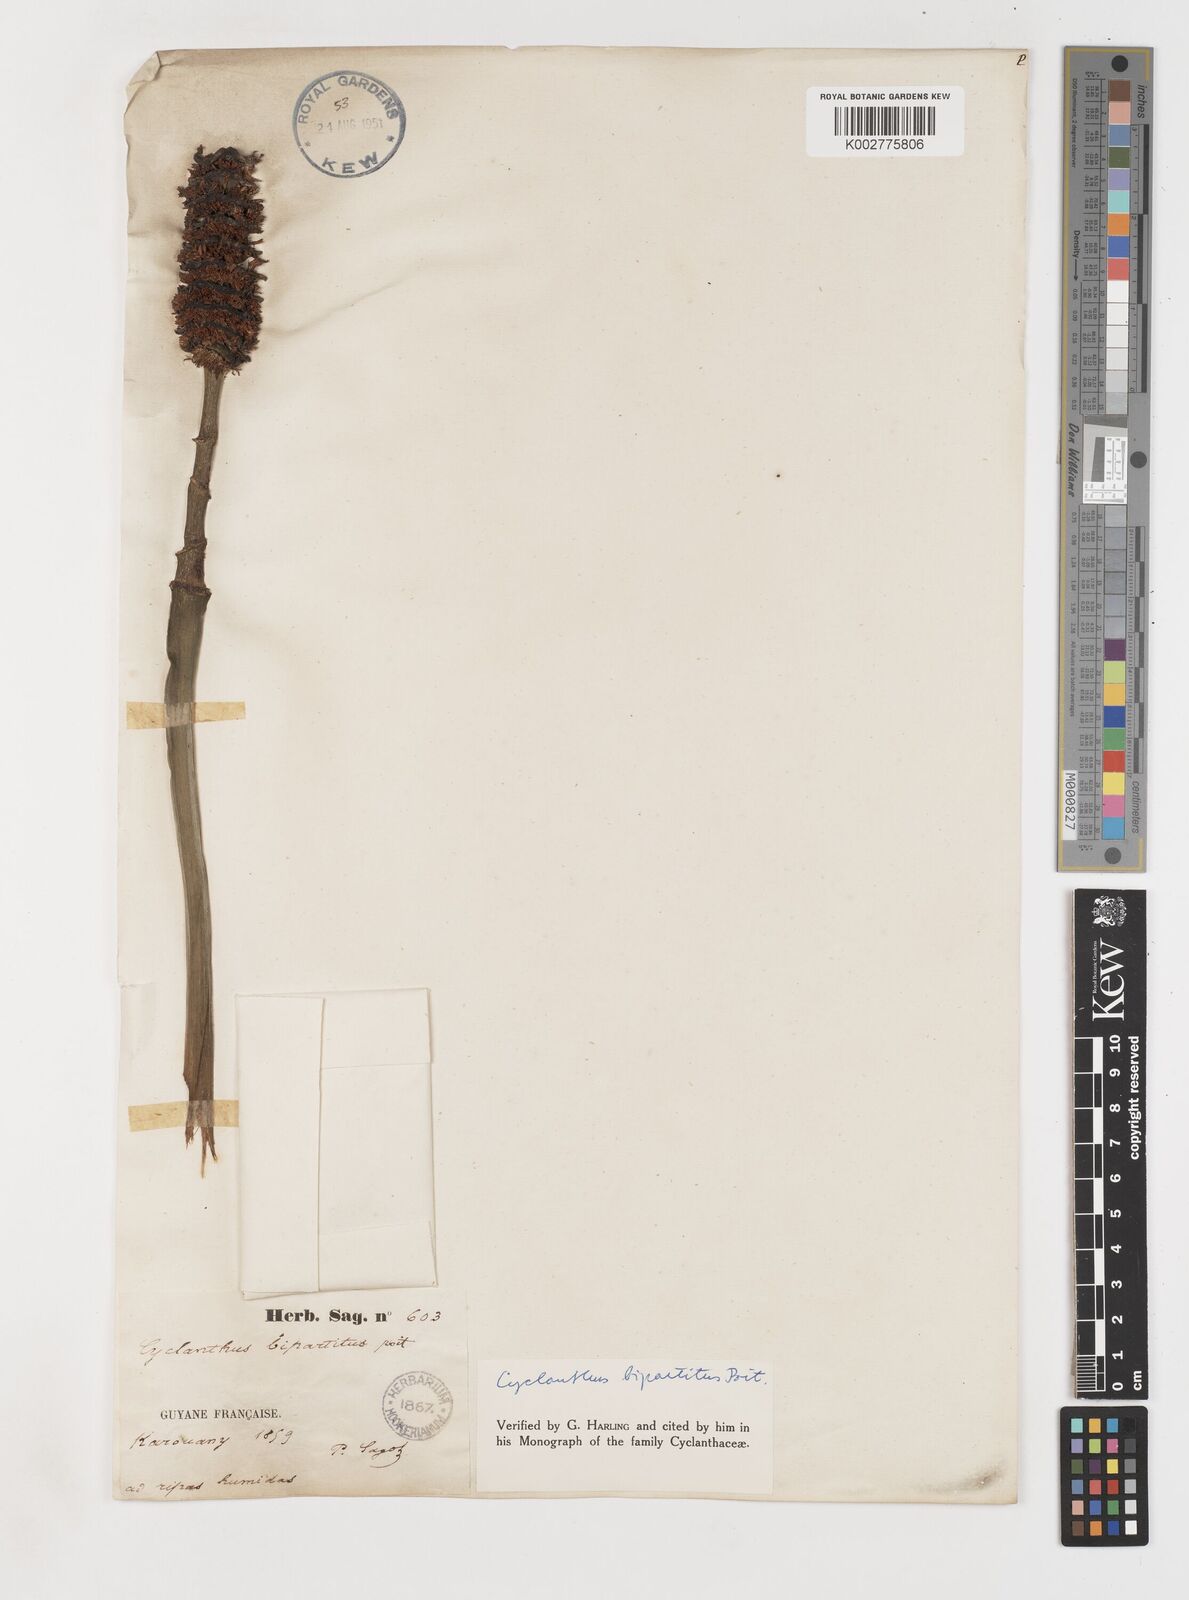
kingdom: Plantae
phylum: Tracheophyta
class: Liliopsida
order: Pandanales
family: Cyclanthaceae
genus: Cyclanthus
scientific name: Cyclanthus bipartitus
